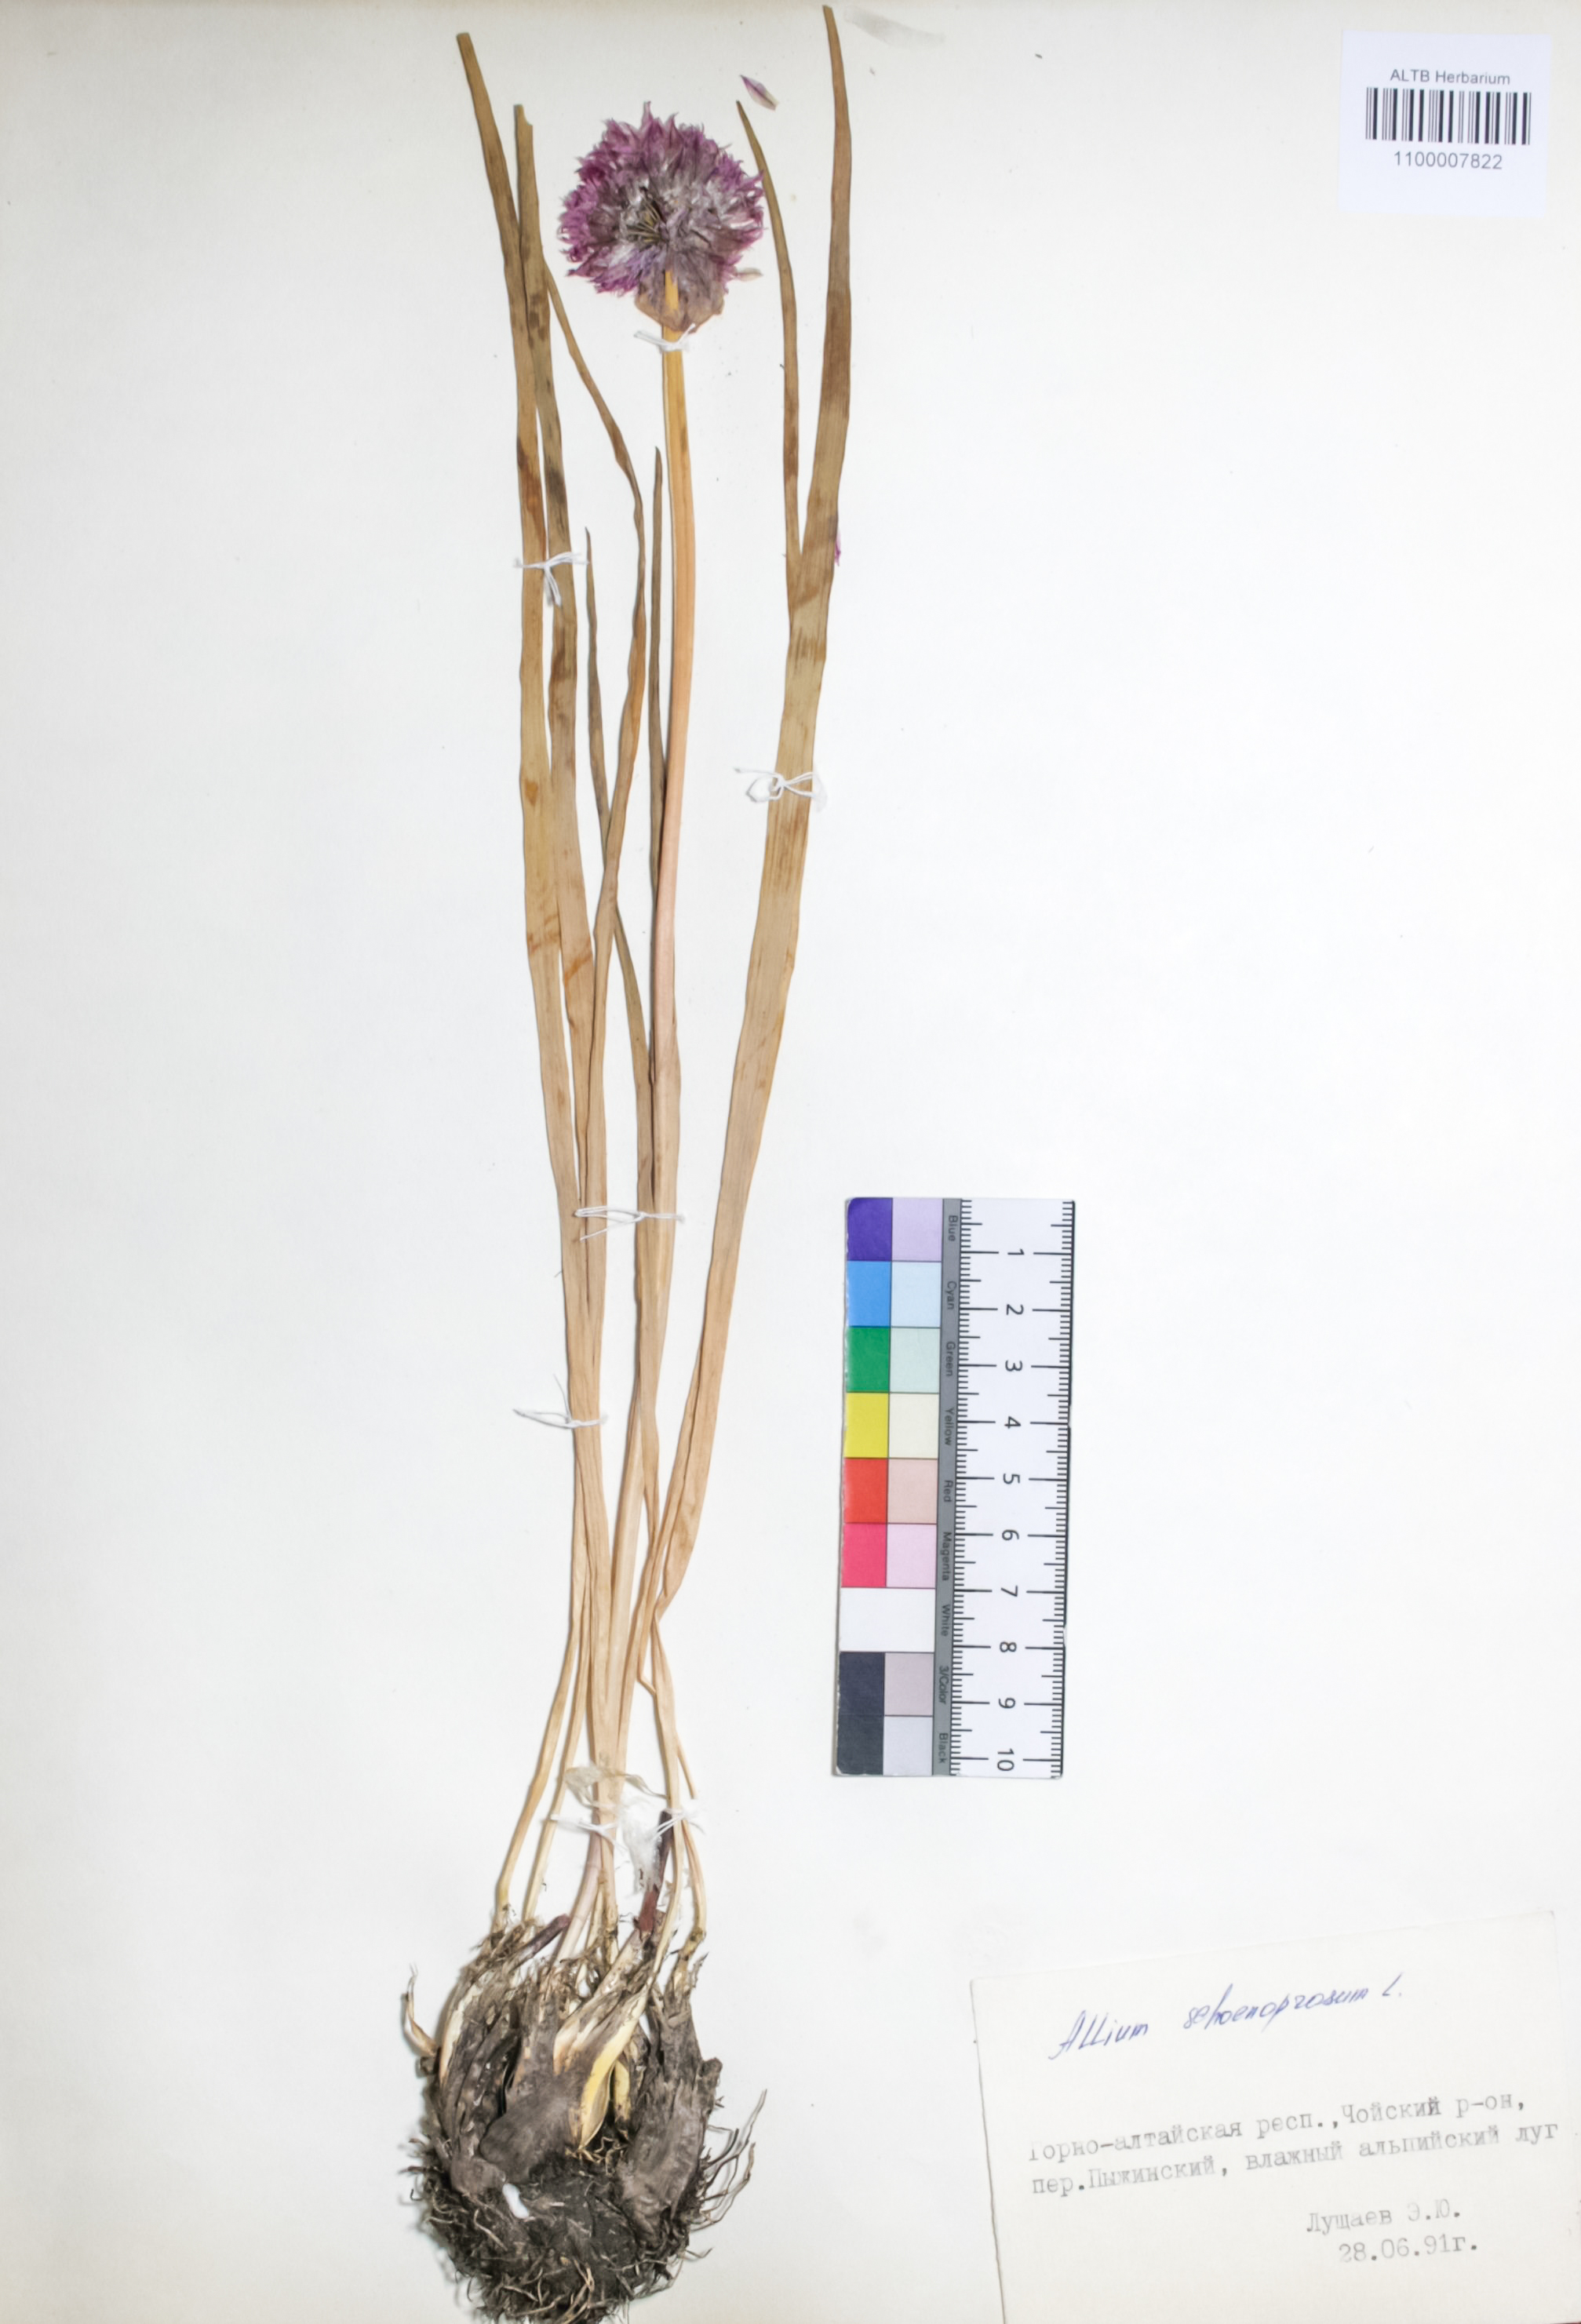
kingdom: Plantae
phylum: Tracheophyta
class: Liliopsida
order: Asparagales
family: Amaryllidaceae
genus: Allium
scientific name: Allium schoenoprasum
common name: Chives
